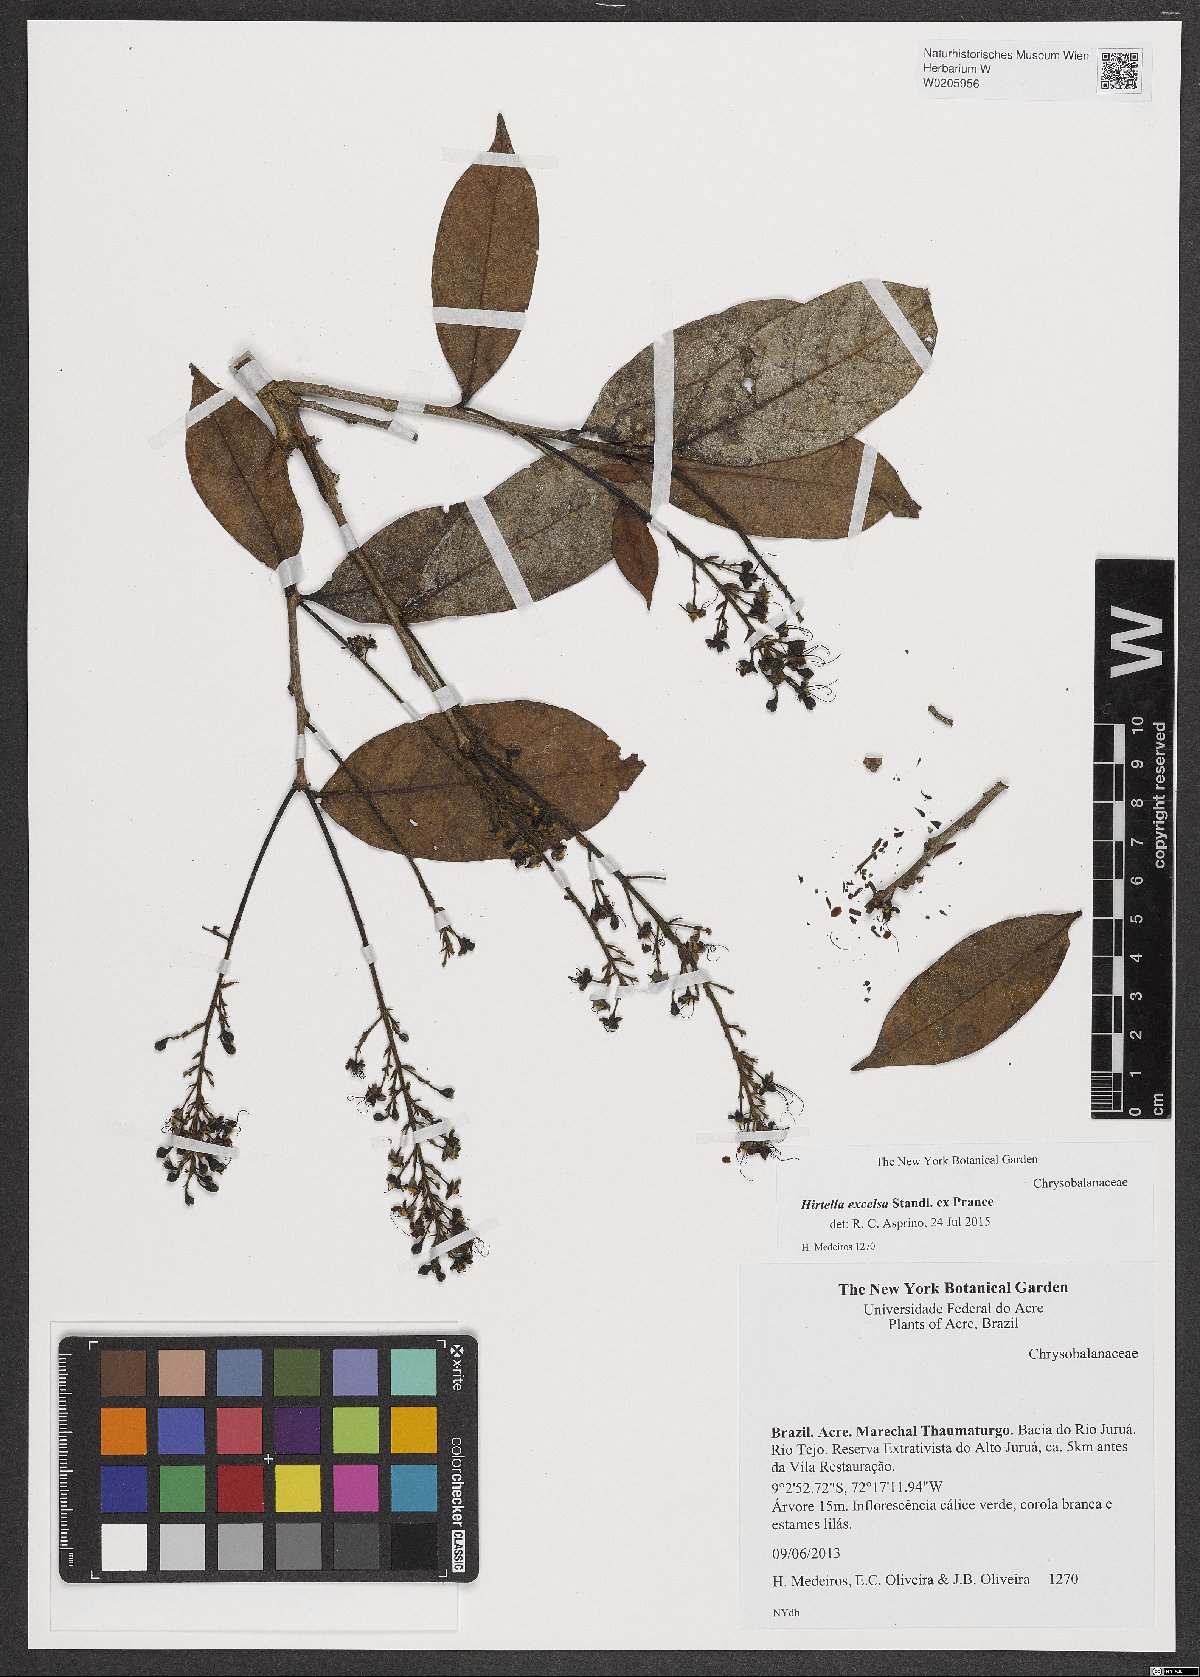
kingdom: Plantae
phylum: Tracheophyta
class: Magnoliopsida
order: Malpighiales
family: Chrysobalanaceae
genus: Hirtella
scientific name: Hirtella excelsa
